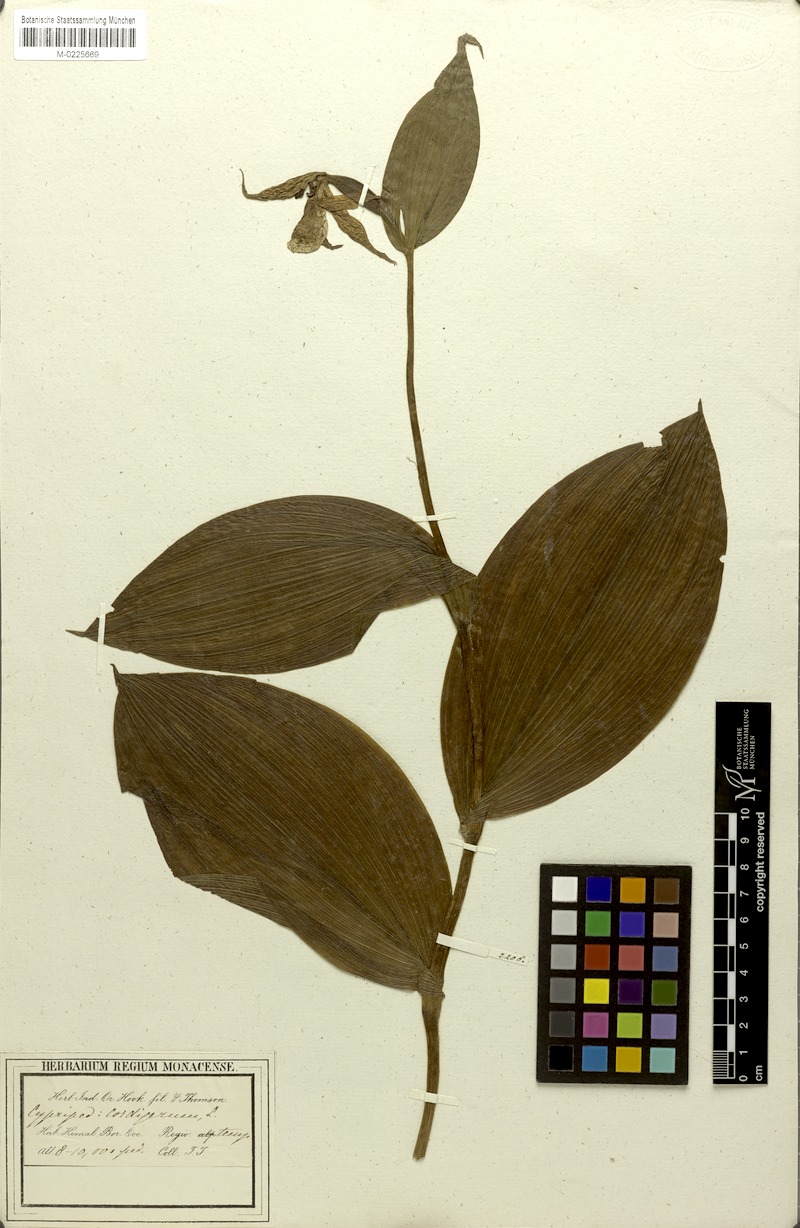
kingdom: Plantae
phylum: Tracheophyta
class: Liliopsida
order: Asparagales
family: Orchidaceae
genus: Cypripedium
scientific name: Cypripedium cordigerum
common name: Heart-shaped lip cypripedium
